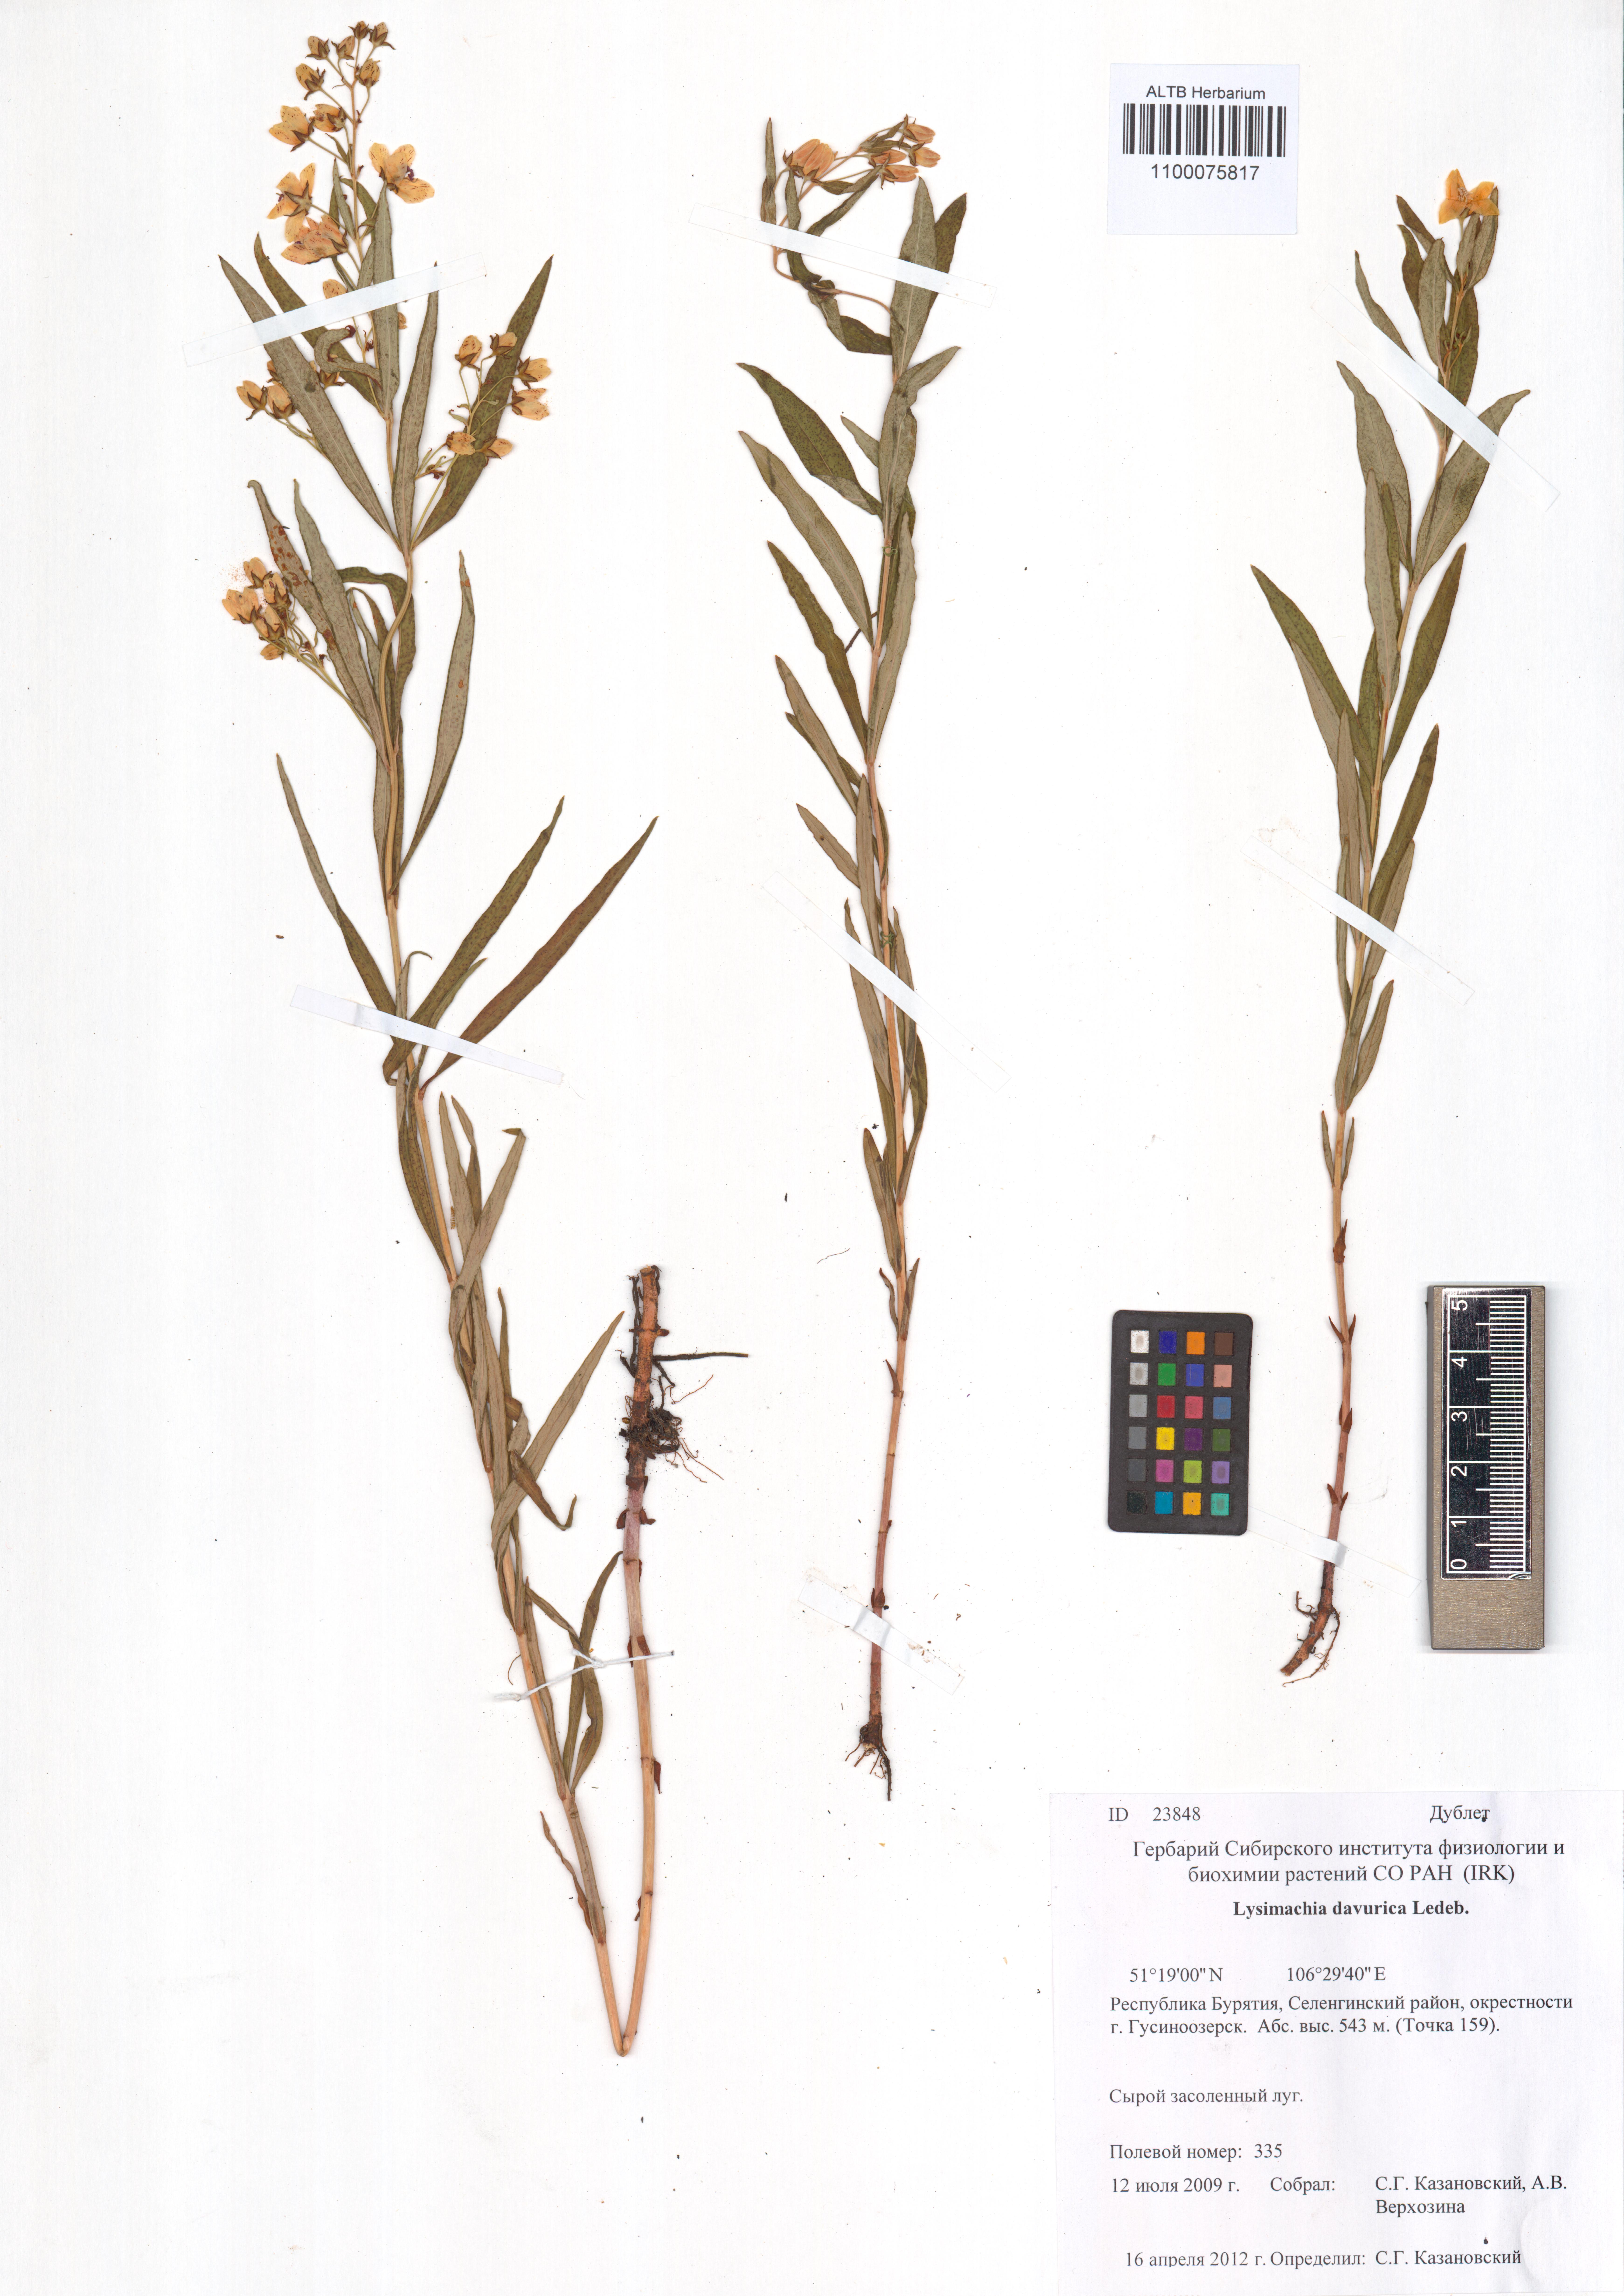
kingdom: Plantae
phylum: Tracheophyta
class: Magnoliopsida
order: Ericales
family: Primulaceae
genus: Lysimachia
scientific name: Lysimachia davurica
